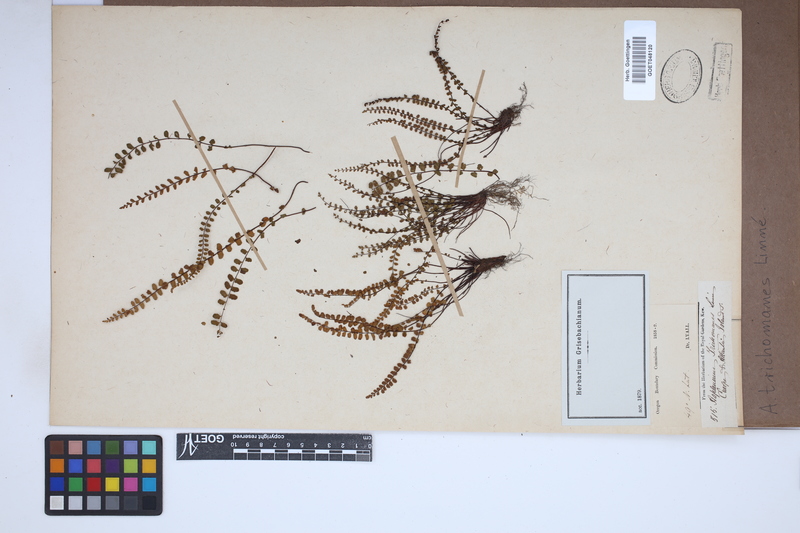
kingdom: Plantae
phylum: Tracheophyta
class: Polypodiopsida
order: Polypodiales
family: Aspleniaceae
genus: Asplenium
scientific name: Asplenium trichomanes
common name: Maidenhair spleenwort
